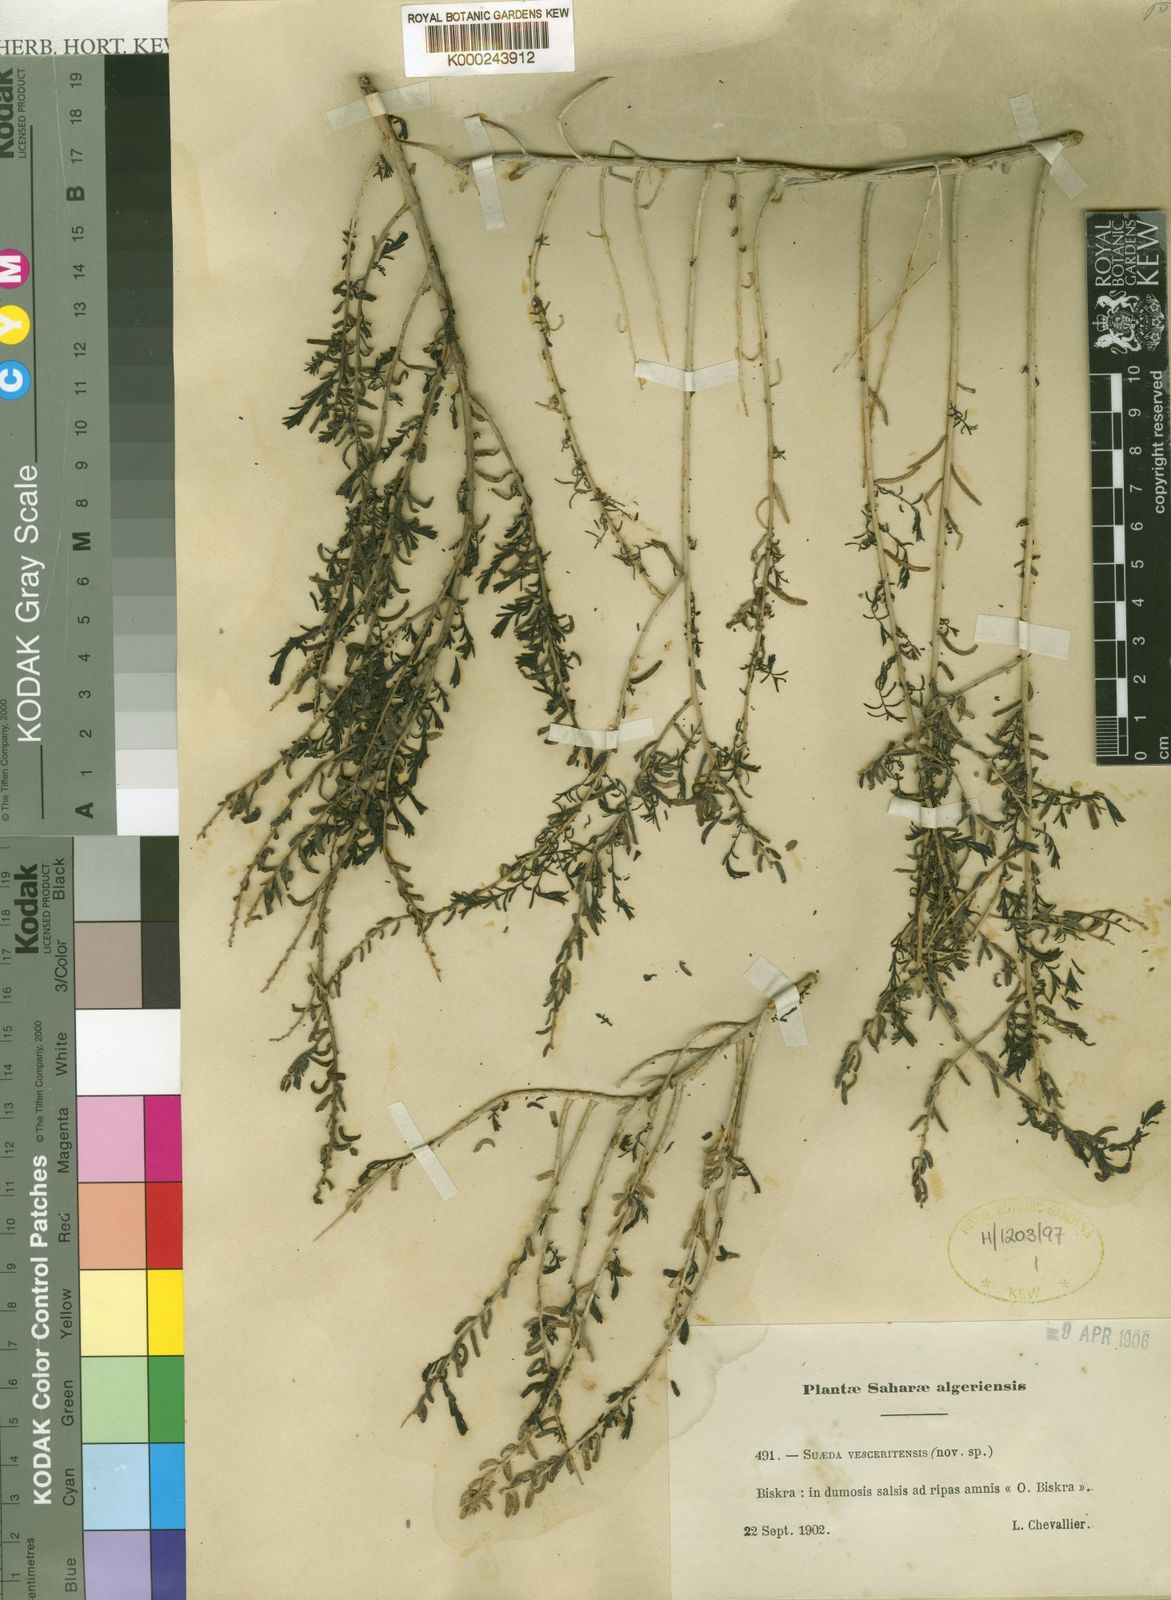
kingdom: Plantae
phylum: Tracheophyta
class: Magnoliopsida
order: Caryophyllales
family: Amaranthaceae
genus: Suaeda
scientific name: Suaeda vera
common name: Shrubby sea-blite
